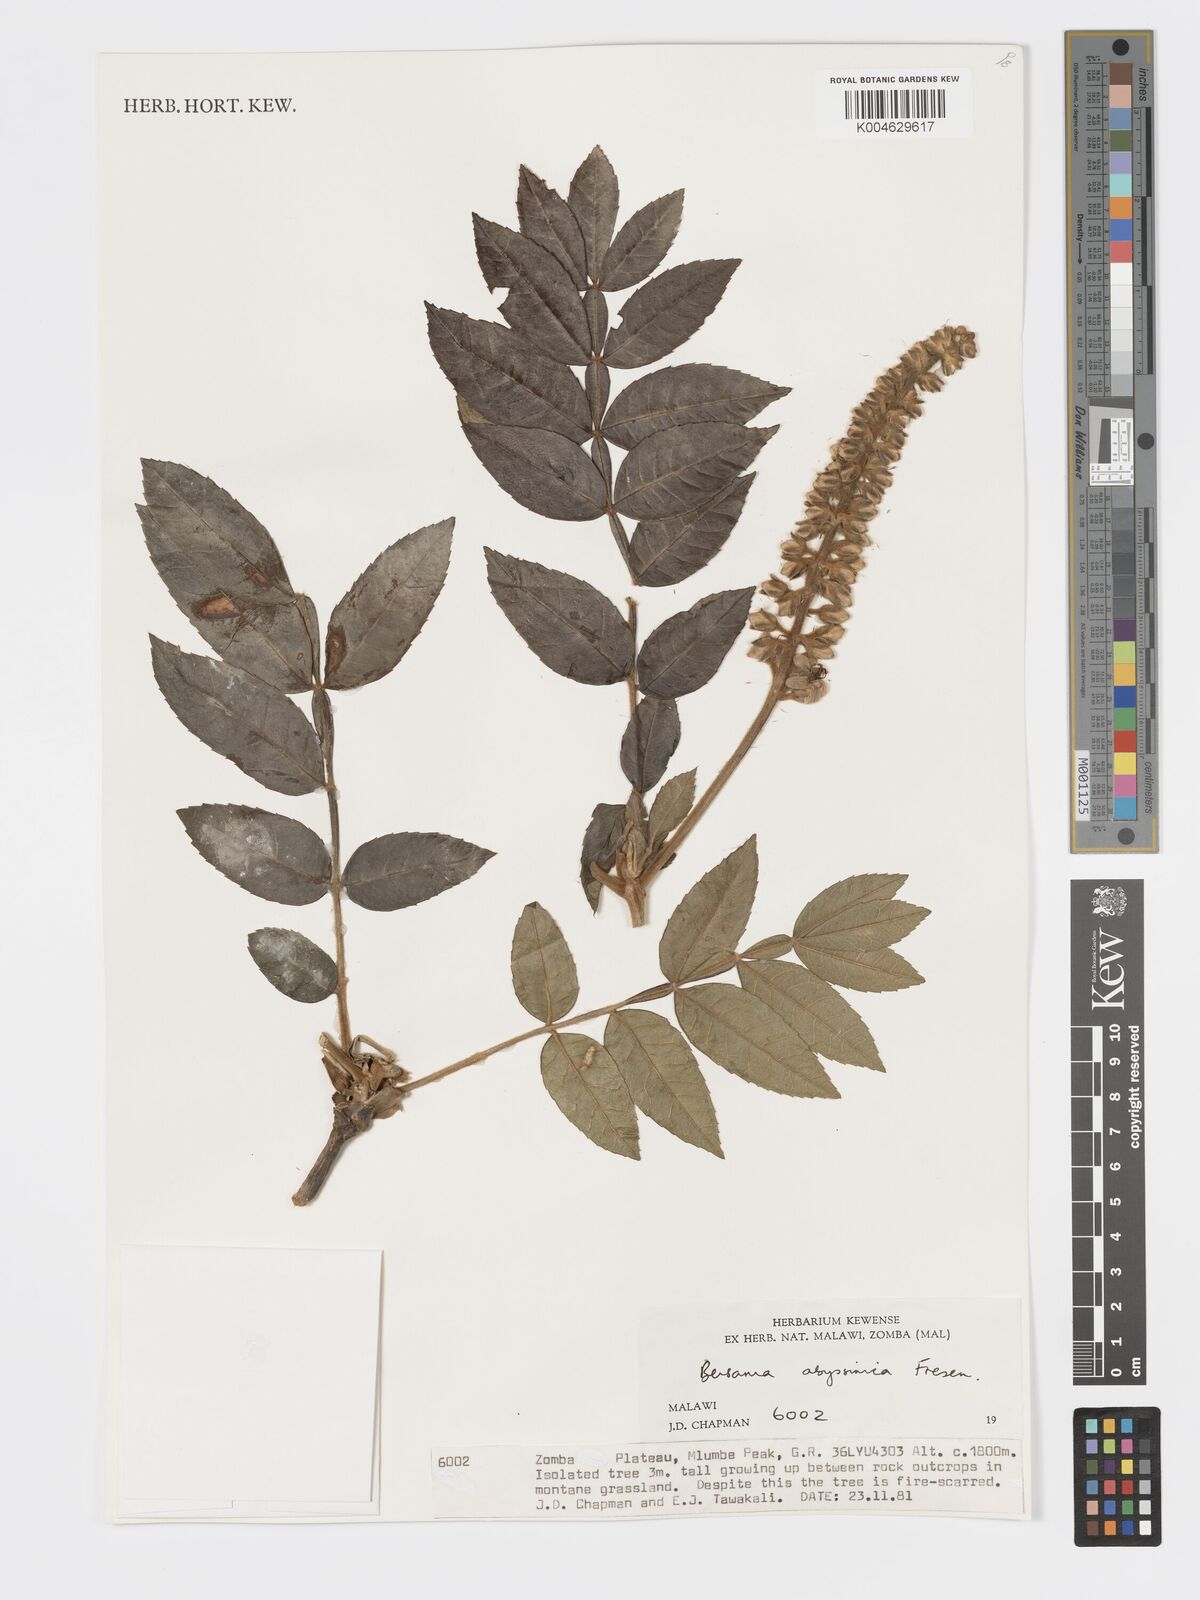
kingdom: Plantae
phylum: Tracheophyta
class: Magnoliopsida
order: Geraniales
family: Melianthaceae
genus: Bersama
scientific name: Bersama abyssinica
